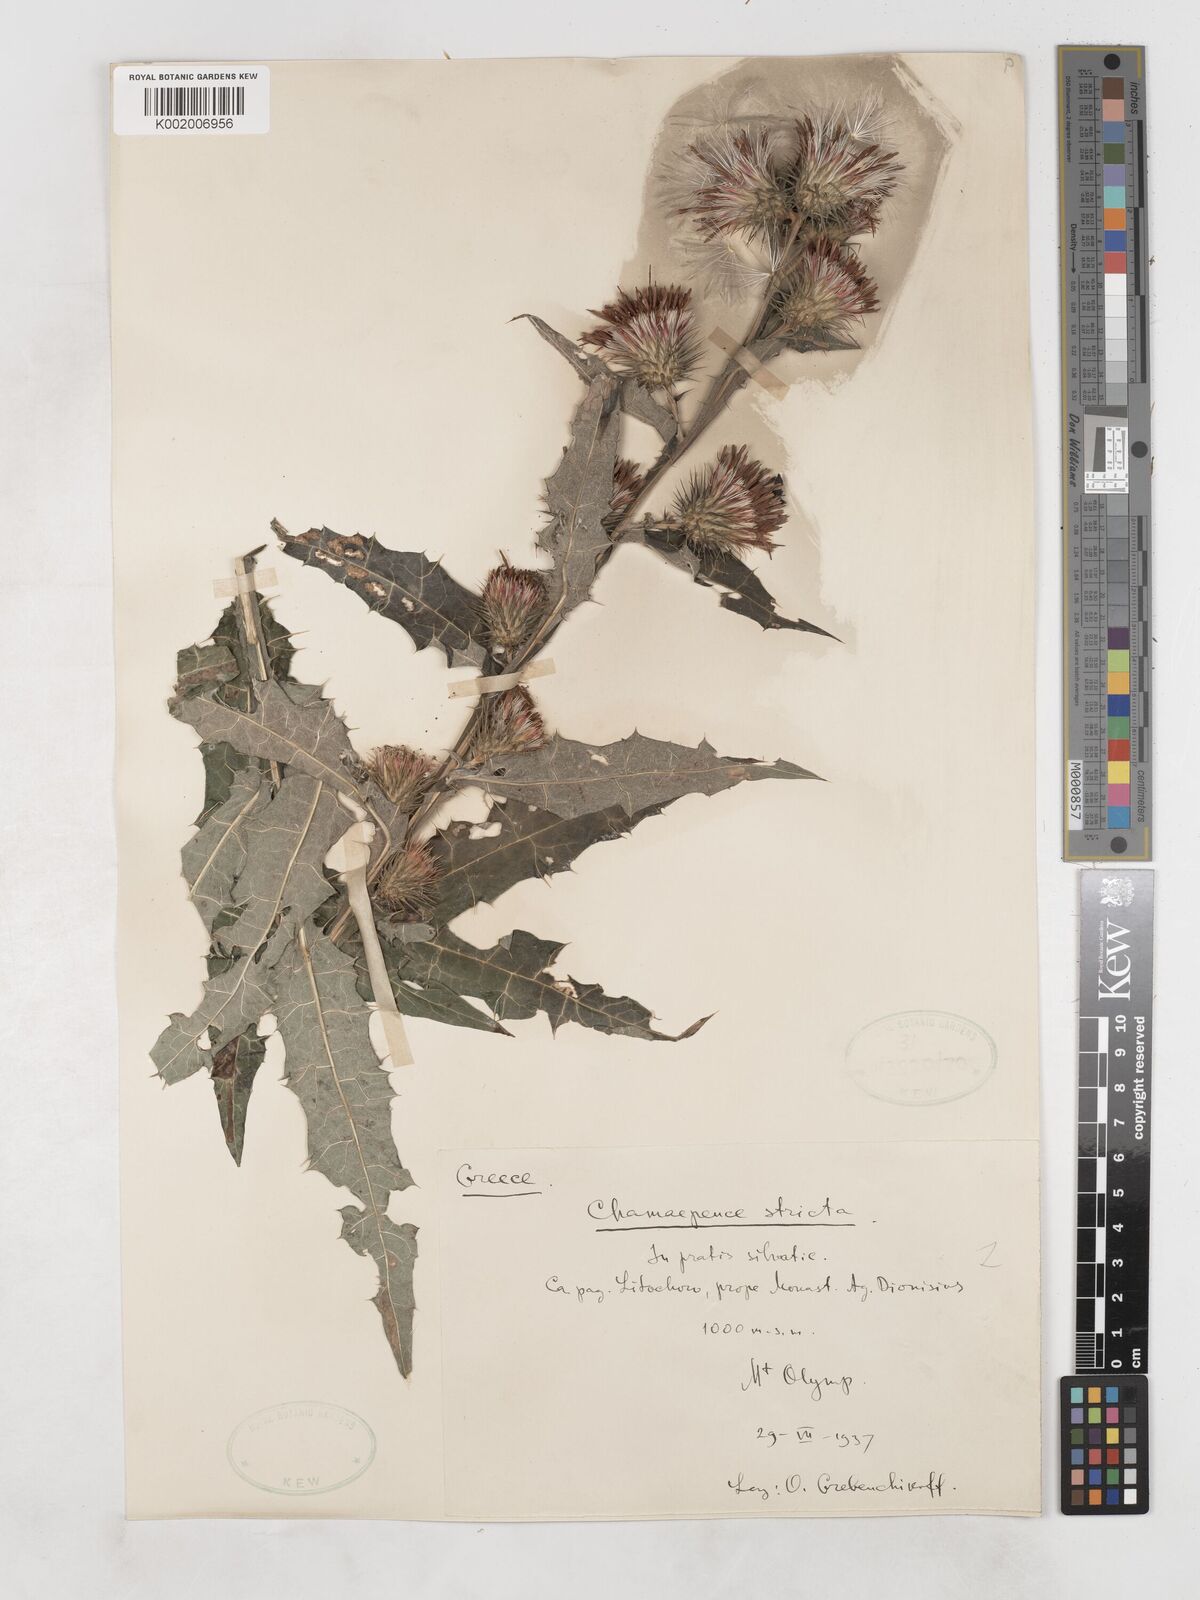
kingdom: Plantae
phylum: Tracheophyta
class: Magnoliopsida
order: Asterales
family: Asteraceae
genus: Ptilostemon
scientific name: Ptilostemon strictus
